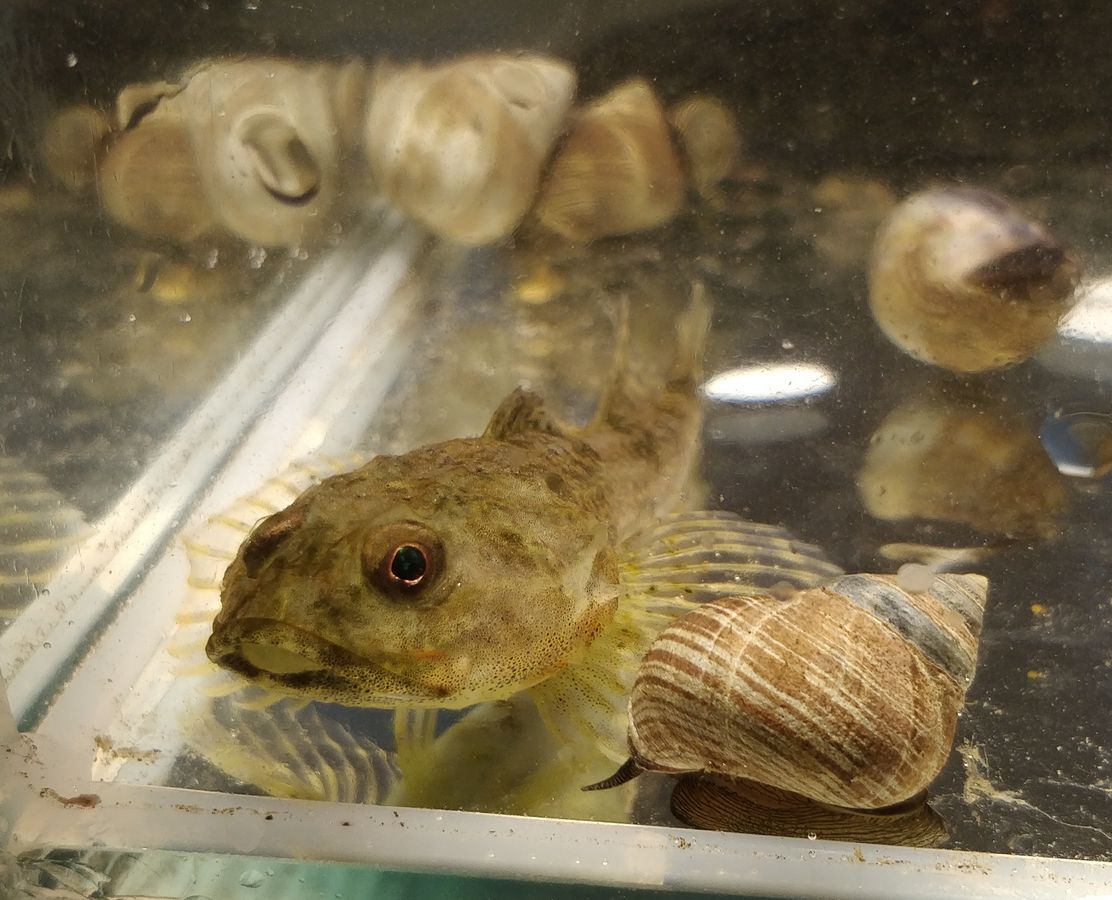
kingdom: Animalia
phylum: Chordata
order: Scorpaeniformes
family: Cottidae
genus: Myoxocephalus
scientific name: Myoxocephalus scorpius
